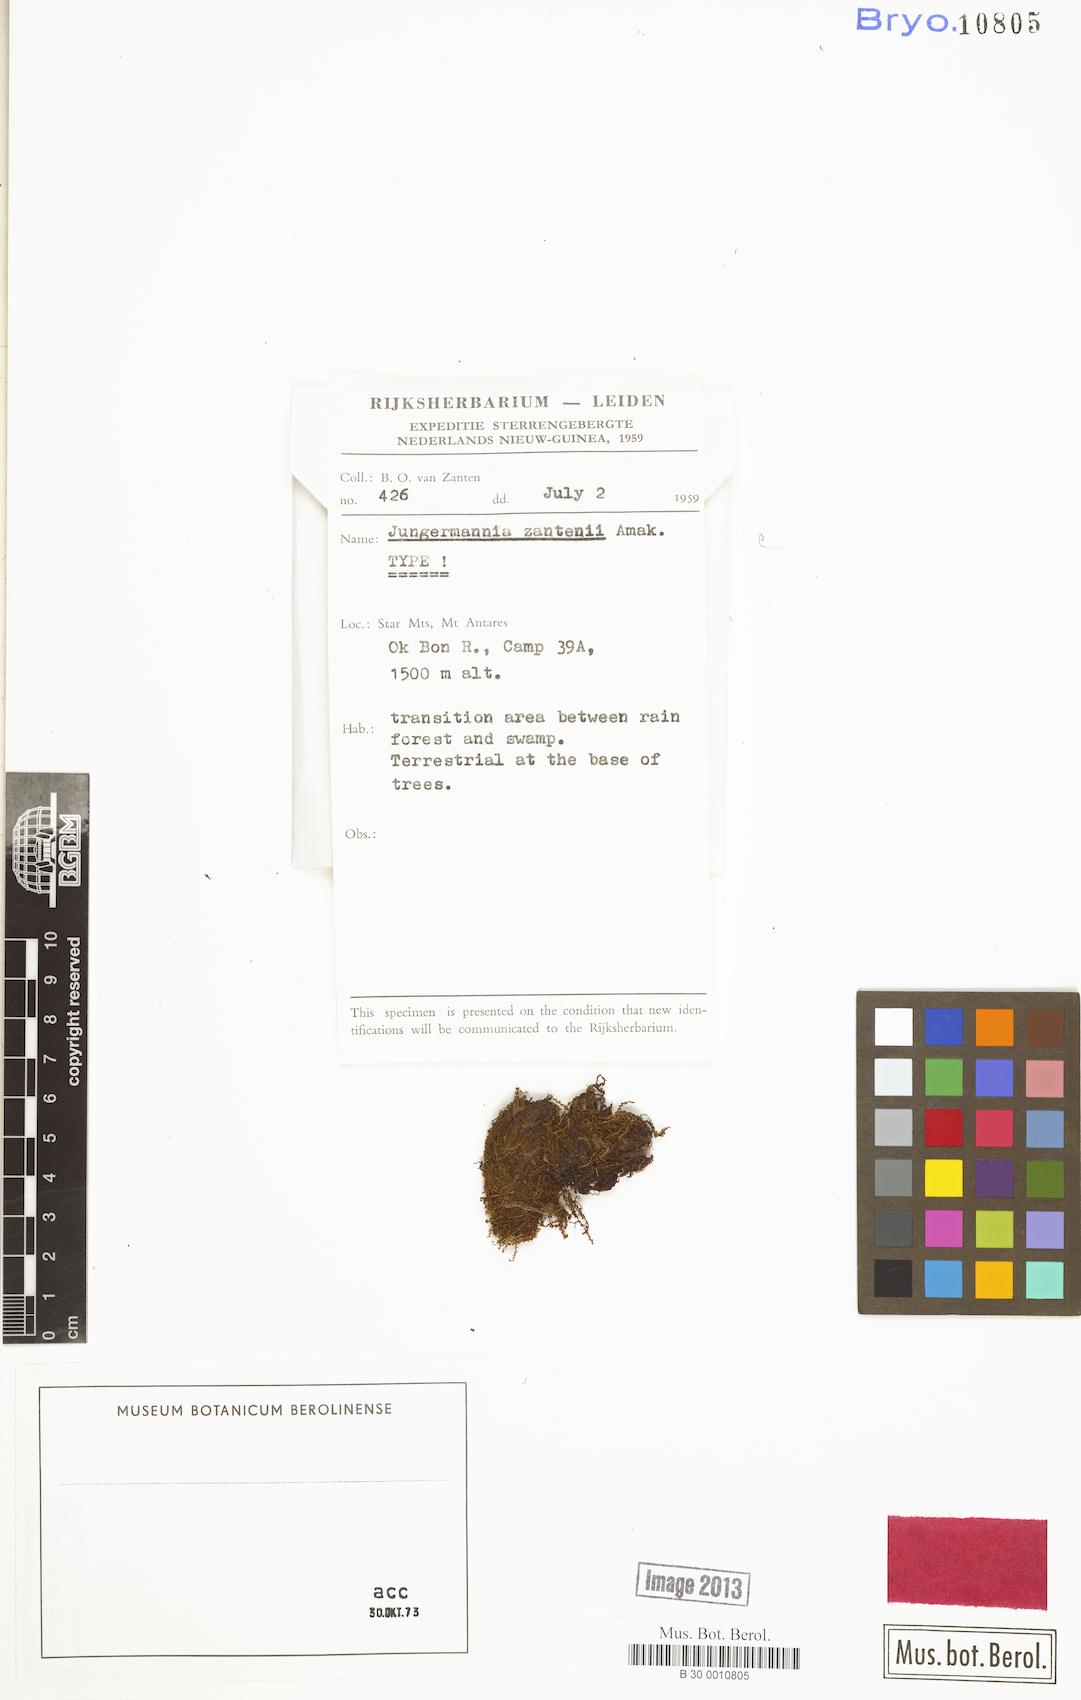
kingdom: Plantae
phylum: Marchantiophyta
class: Jungermanniopsida
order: Jungermanniales
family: Solenostomataceae
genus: Solenostoma
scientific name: Solenostoma zantenii
